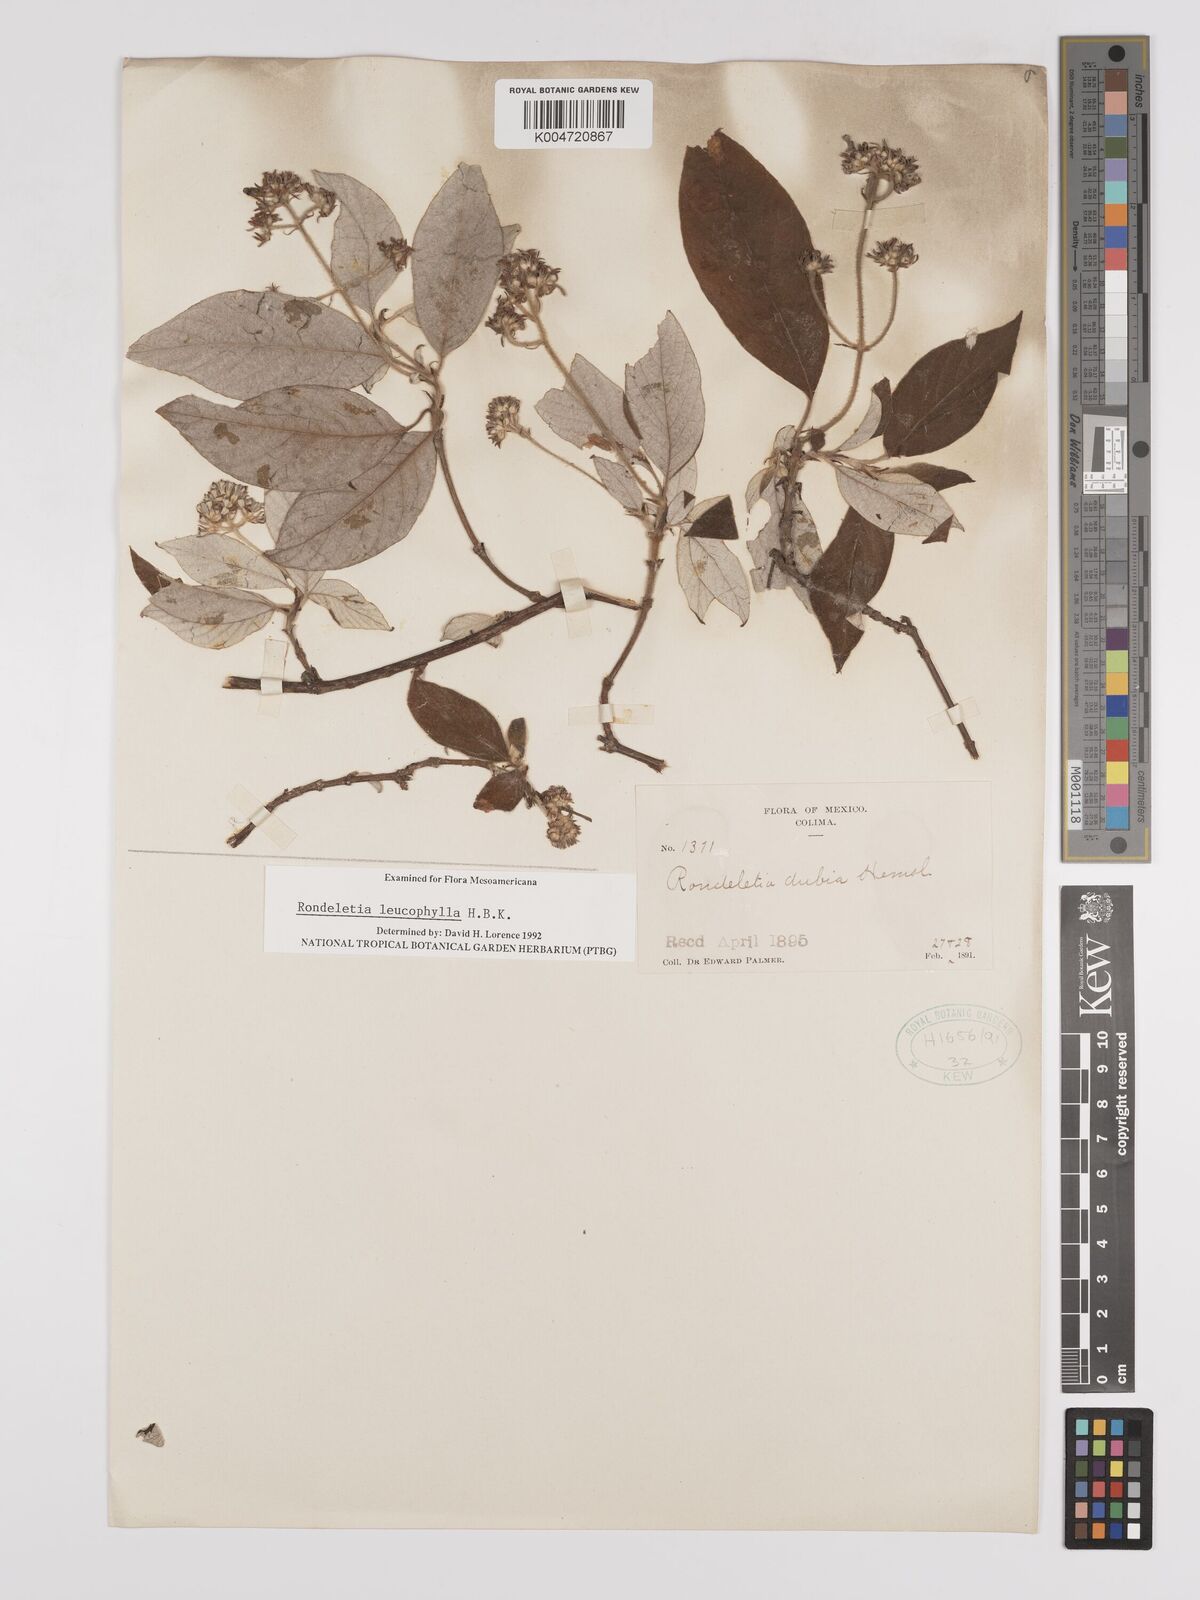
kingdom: Plantae
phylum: Tracheophyta
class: Magnoliopsida
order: Gentianales
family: Rubiaceae
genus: Arachnothryx
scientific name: Arachnothryx leucophylla
